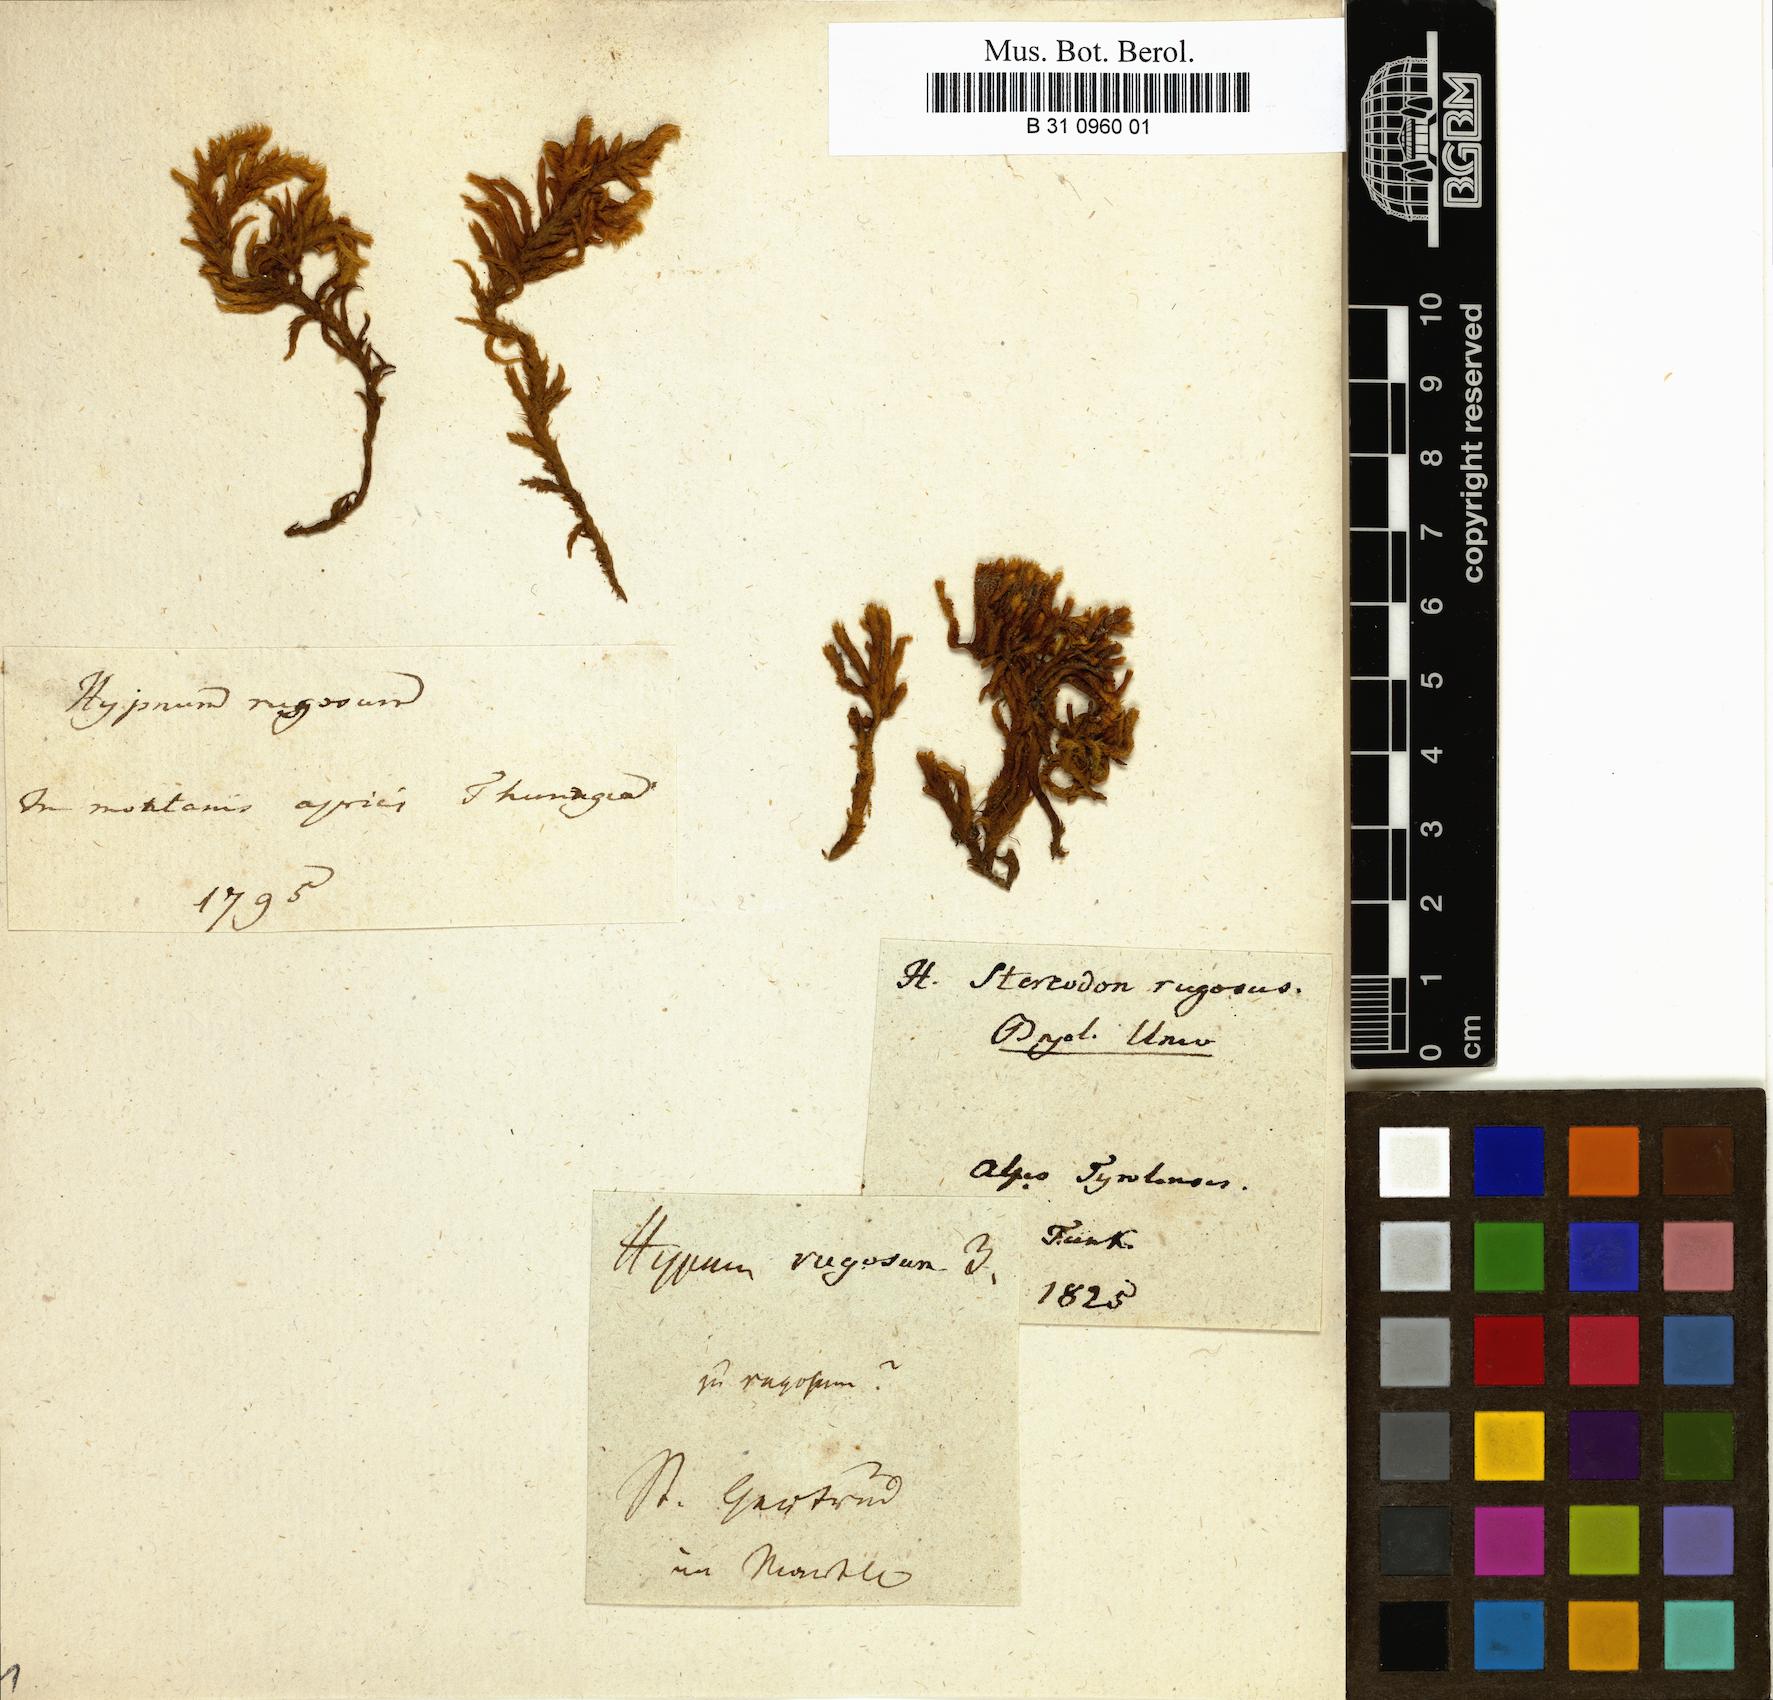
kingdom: Plantae
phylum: Bryophyta
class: Bryopsida
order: Hypnales
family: Rhytidiaceae
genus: Rhytidium
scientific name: Rhytidium rugosum
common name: Wrinkle-leaved moss
